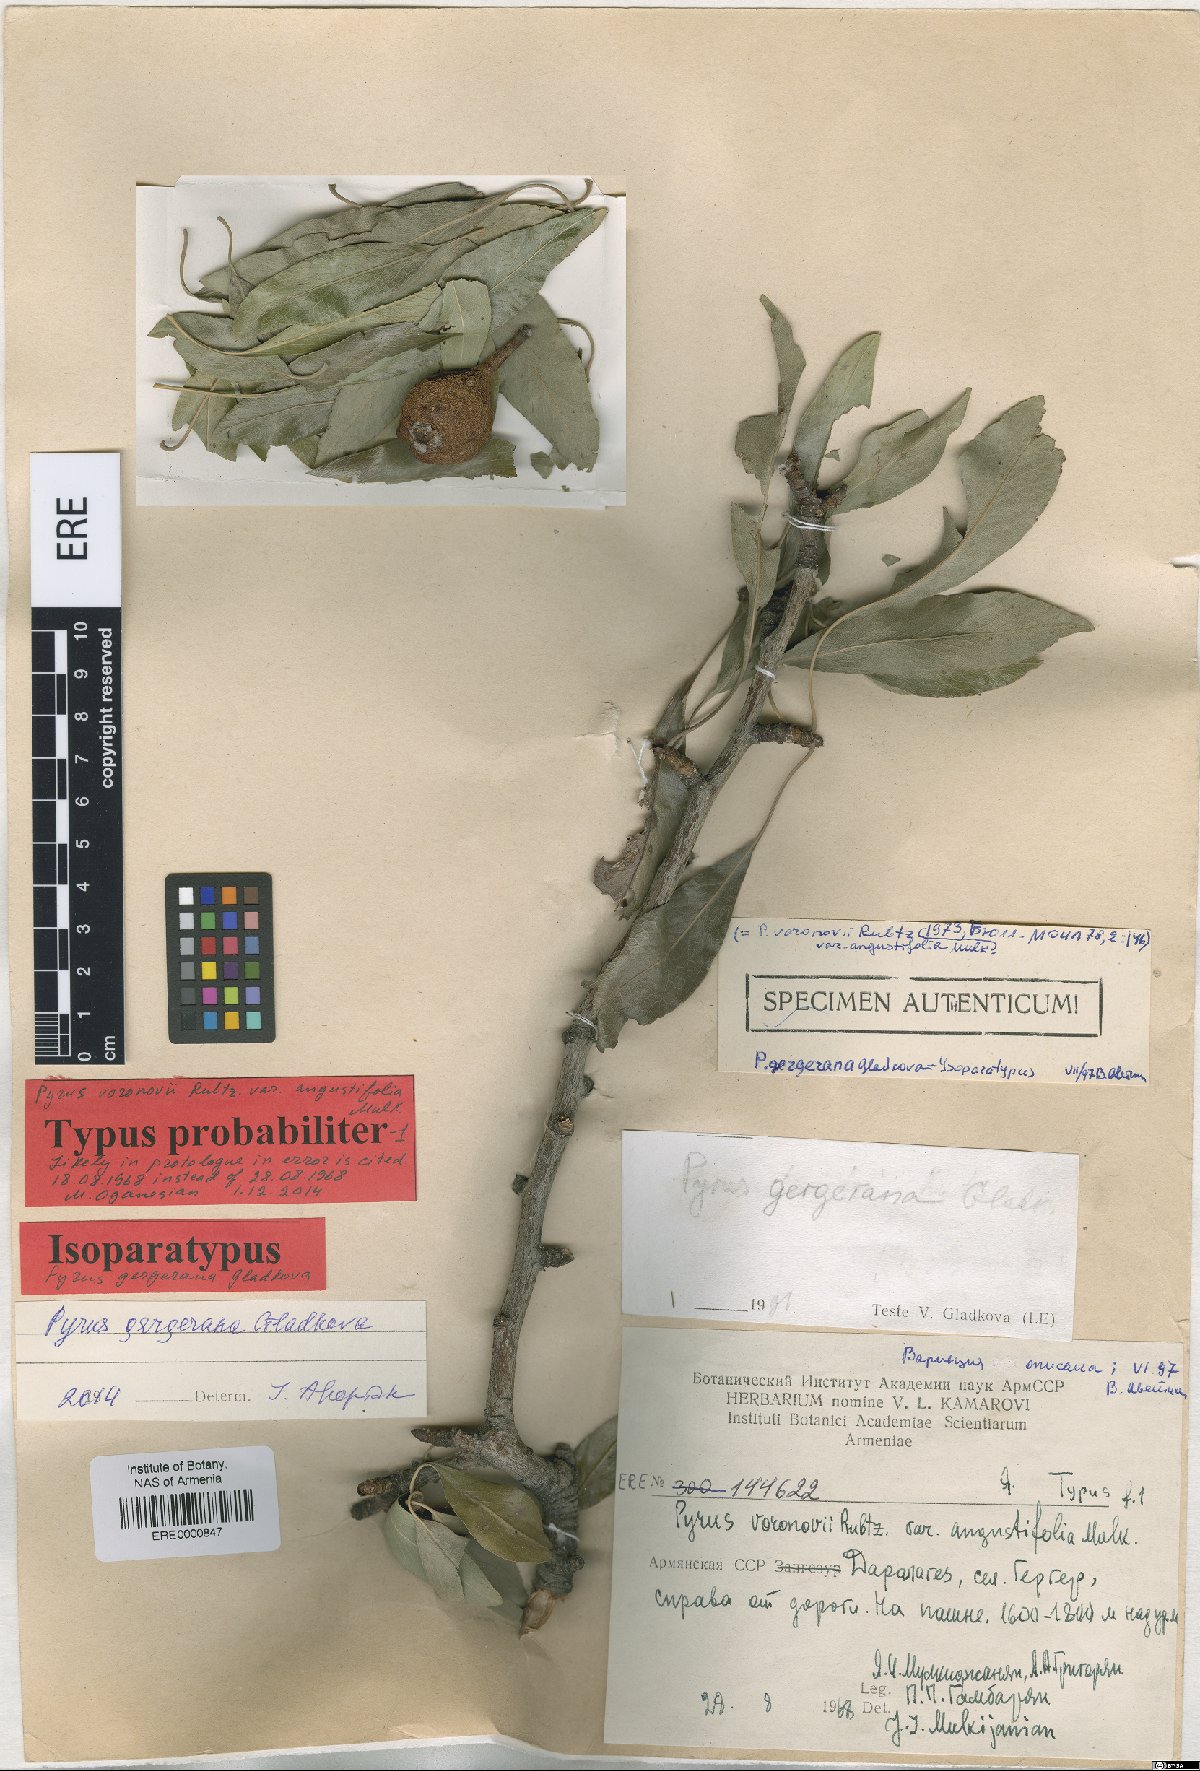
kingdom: Plantae
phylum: Tracheophyta
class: Magnoliopsida
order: Rosales
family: Rosaceae
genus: Pyrus
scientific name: Pyrus gergerana
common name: Gergeranian pear
